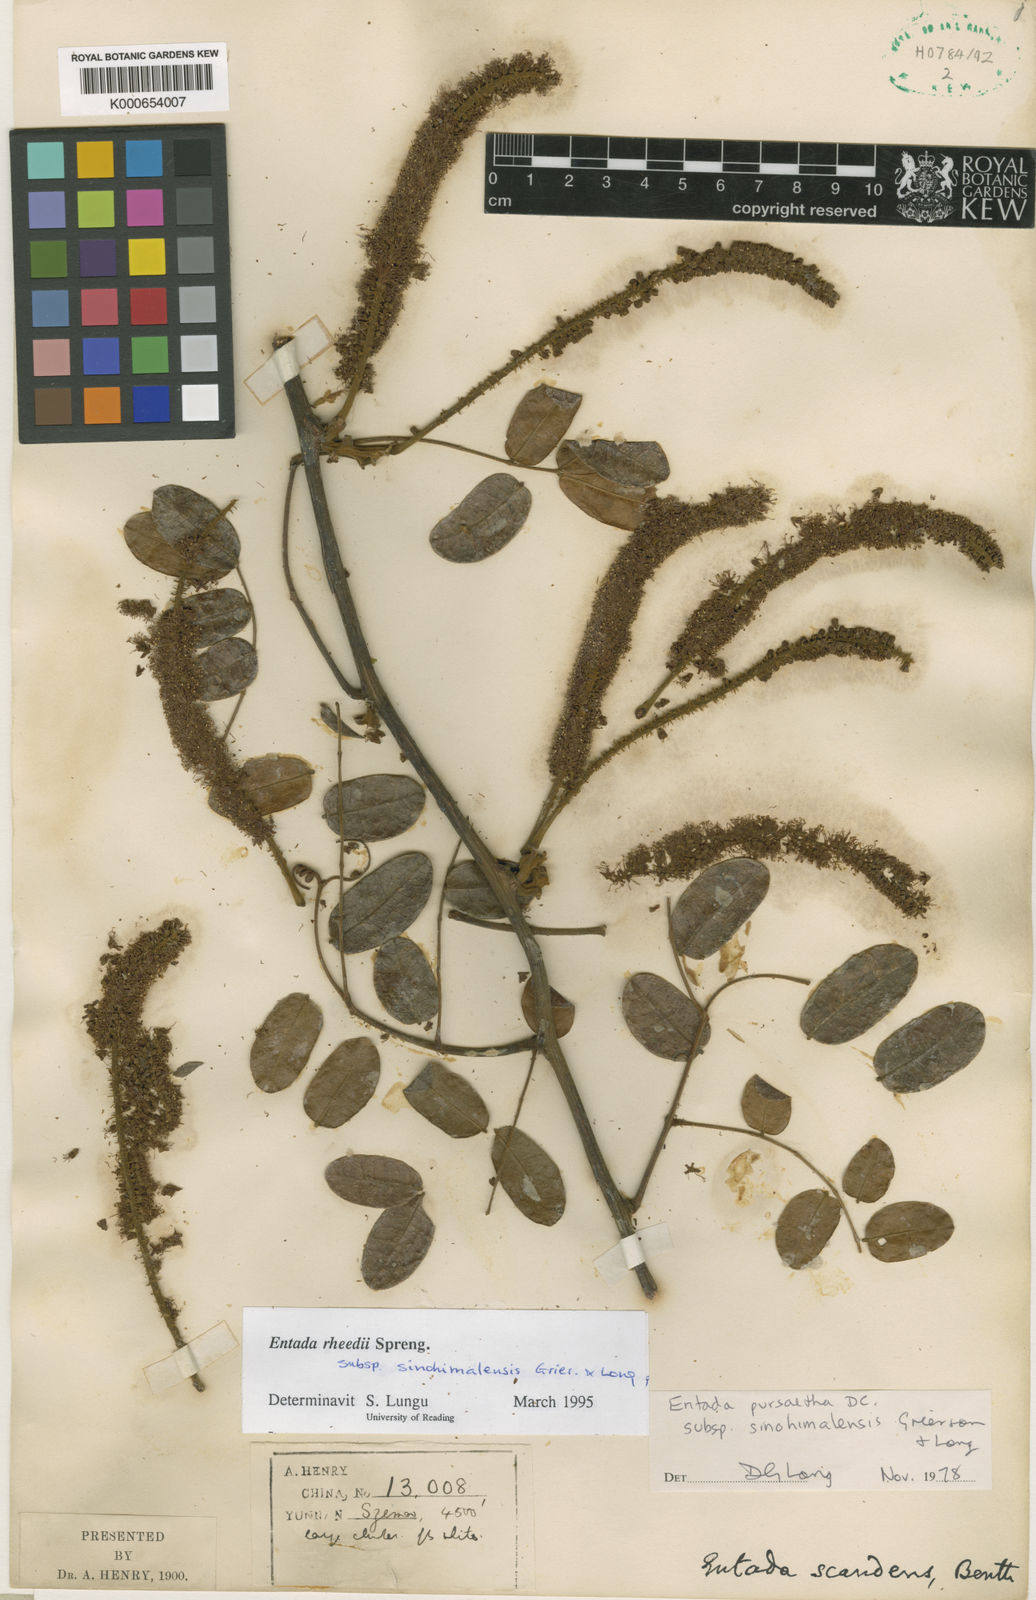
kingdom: Plantae
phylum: Tracheophyta
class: Magnoliopsida
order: Fabales
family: Fabaceae
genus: Entada
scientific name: Entada rheedei
